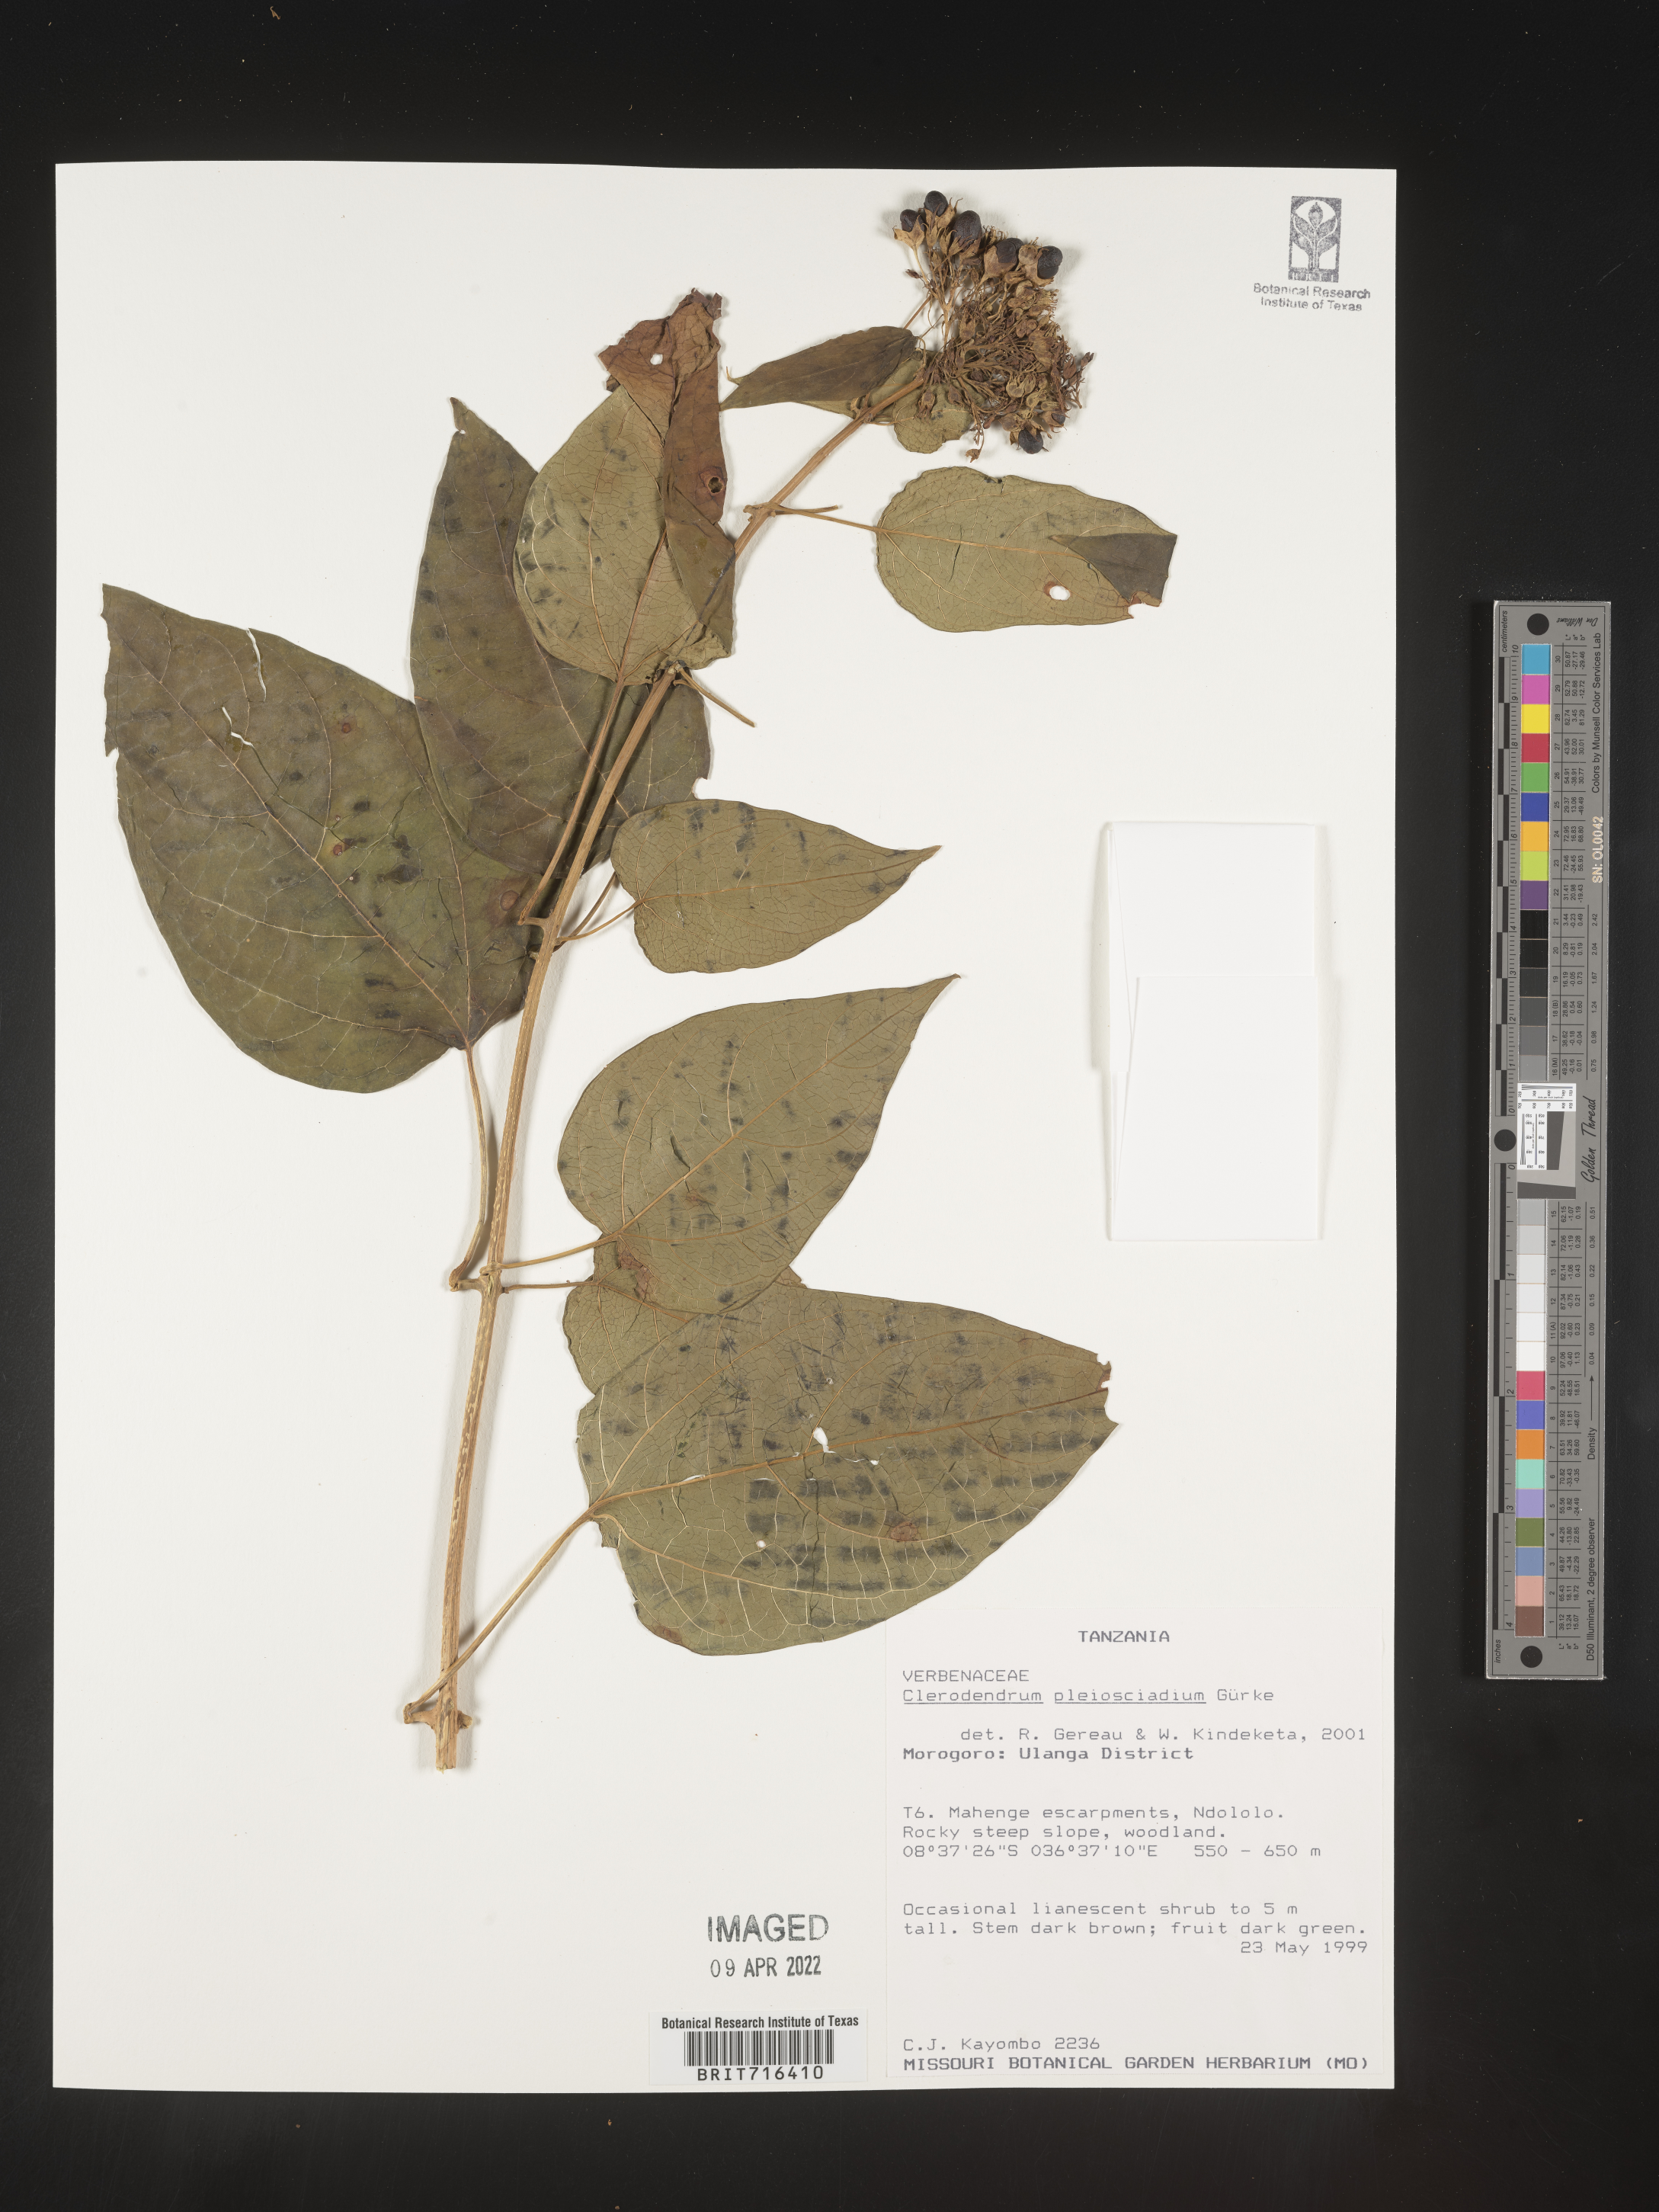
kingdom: Plantae
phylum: Tracheophyta
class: Magnoliopsida
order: Lamiales
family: Lamiaceae
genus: Clerodendrum
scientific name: Clerodendrum
